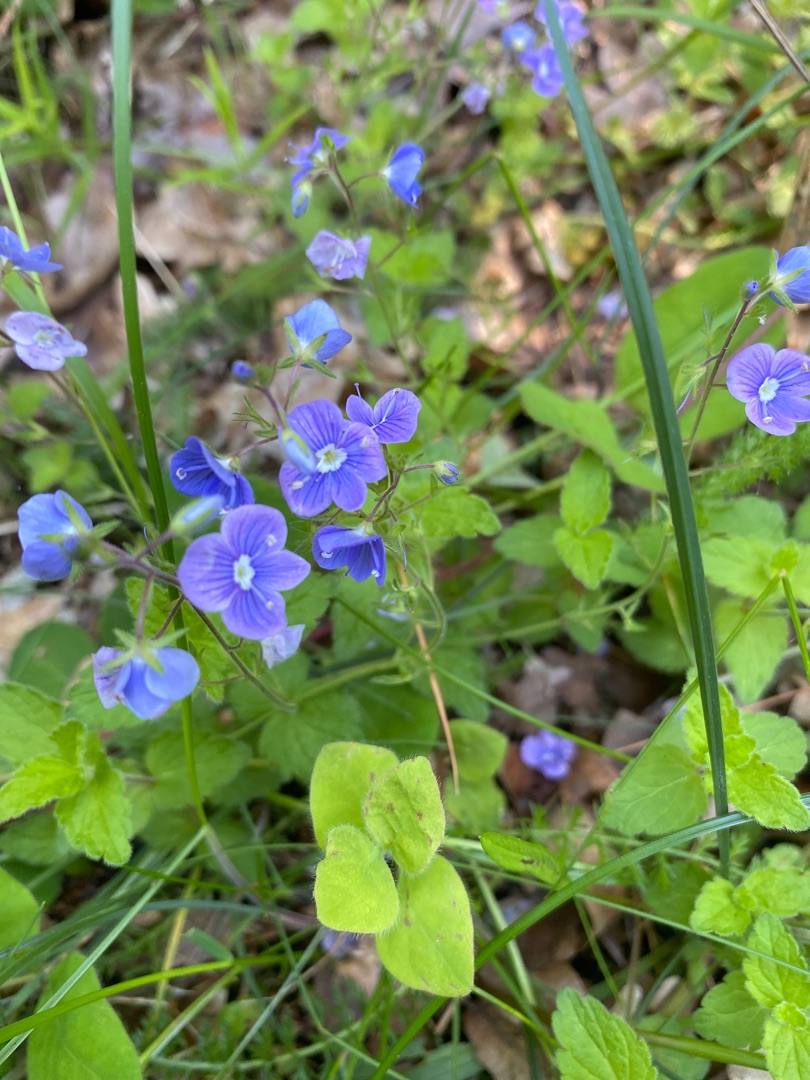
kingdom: Plantae
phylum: Tracheophyta
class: Magnoliopsida
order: Lamiales
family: Plantaginaceae
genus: Veronica
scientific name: Veronica chamaedrys
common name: Tveskægget ærenpris
